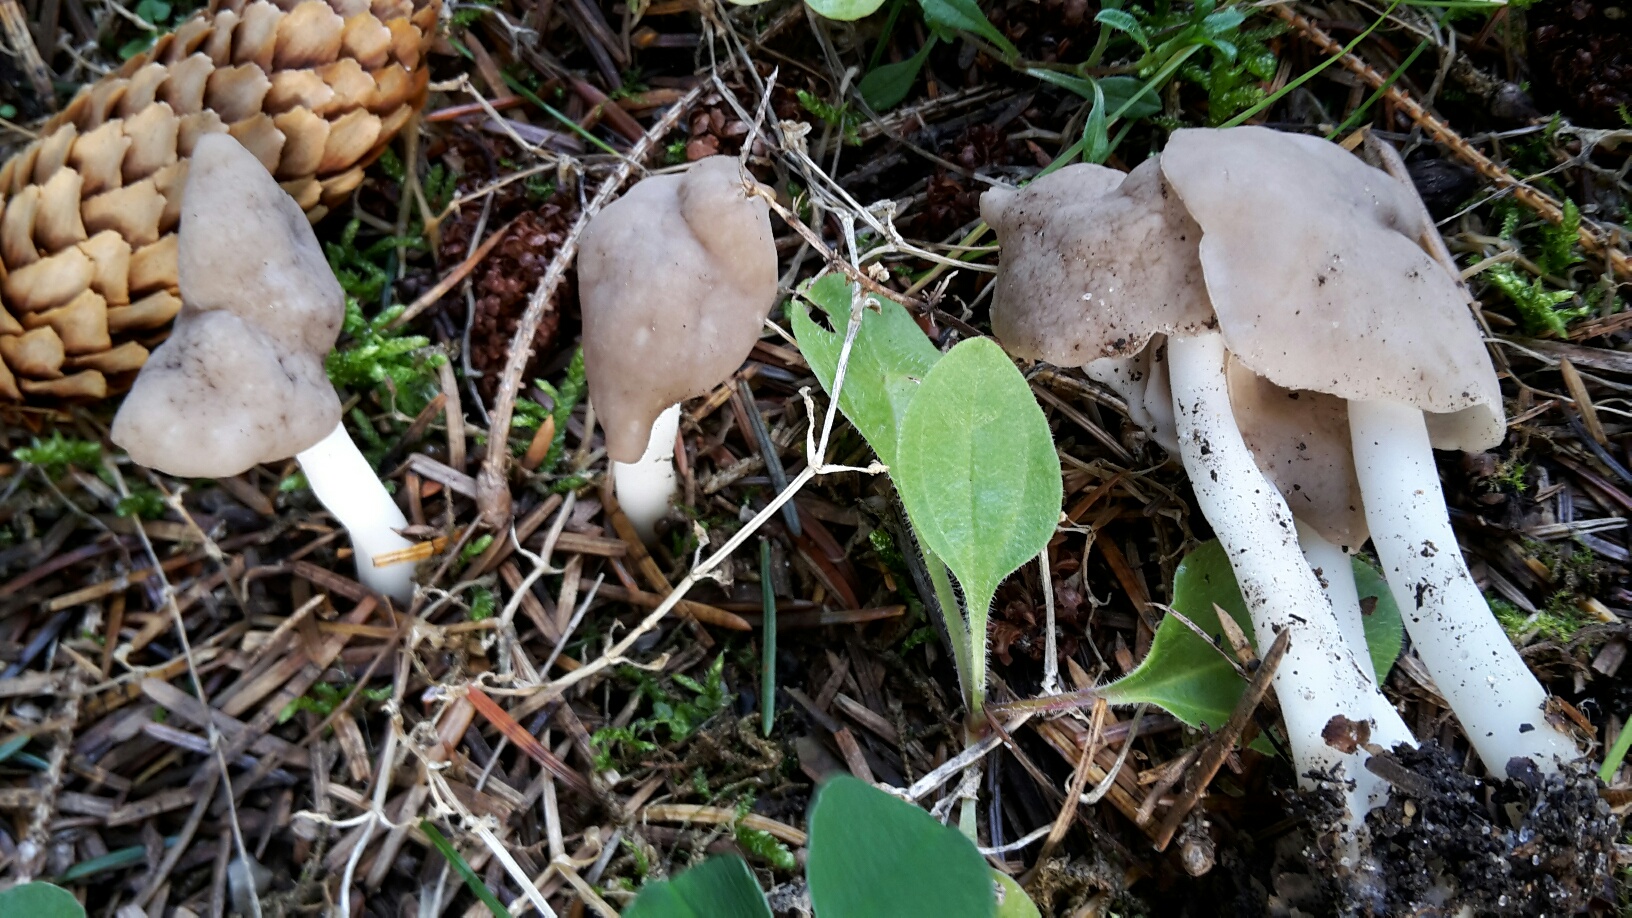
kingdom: Fungi
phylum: Ascomycota
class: Pezizomycetes
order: Pezizales
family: Helvellaceae
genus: Helvella
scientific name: Helvella elastica
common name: elastik-foldhat
